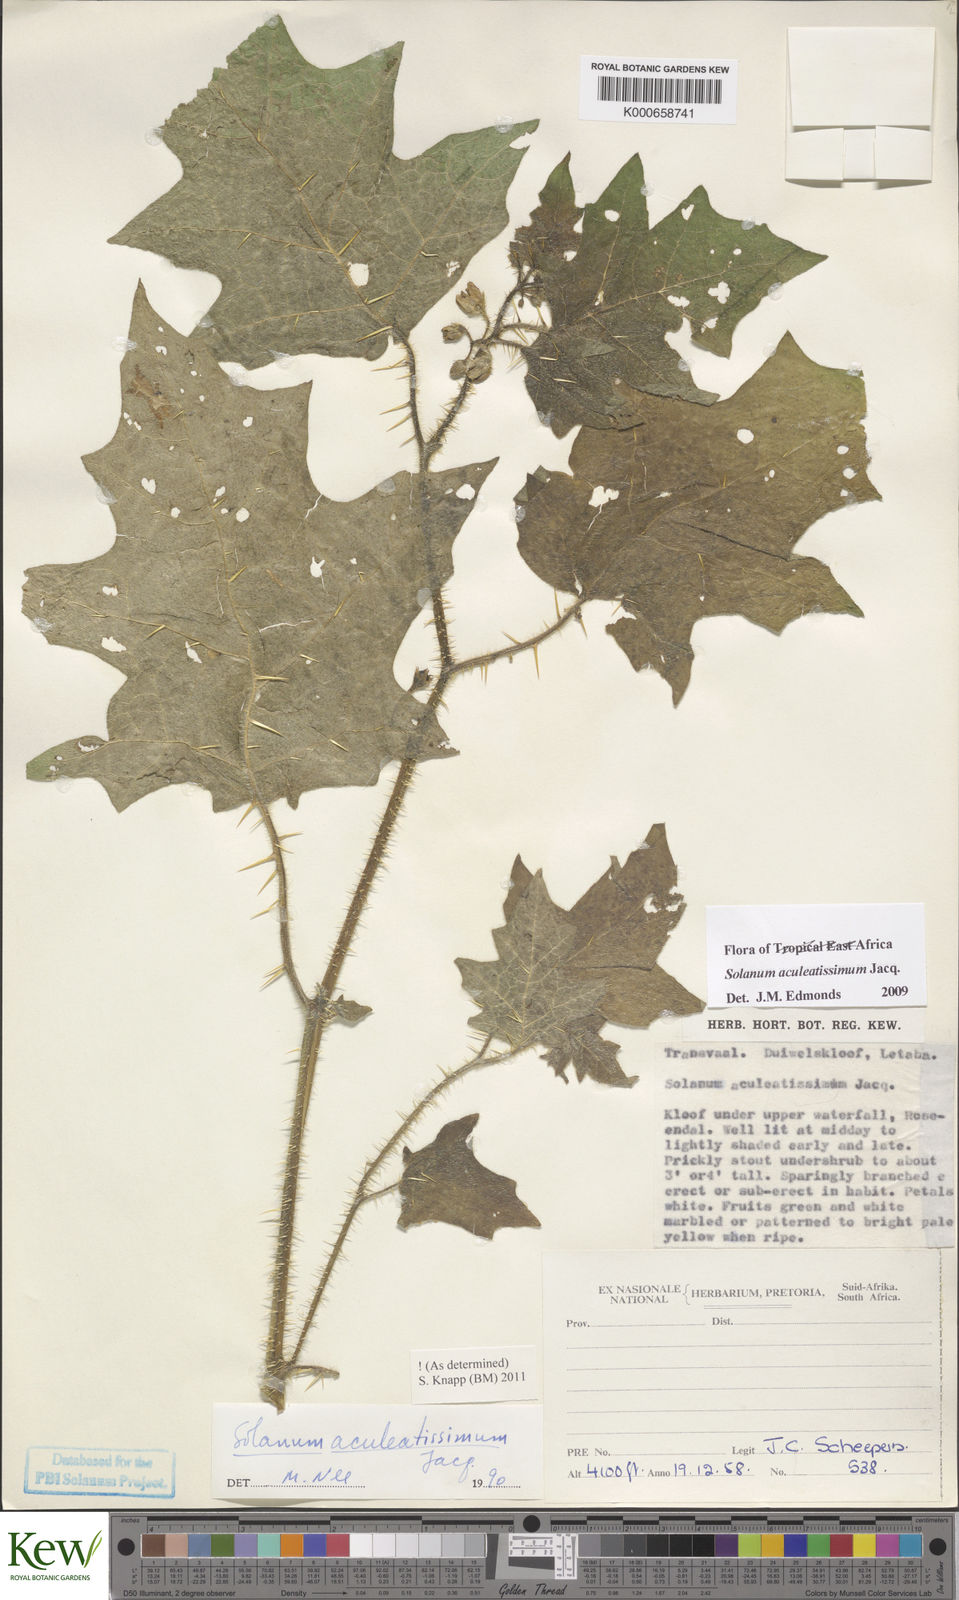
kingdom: Plantae
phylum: Tracheophyta
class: Magnoliopsida
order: Solanales
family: Solanaceae
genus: Solanum
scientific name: Solanum aculeatissimum
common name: Dutch eggplant
